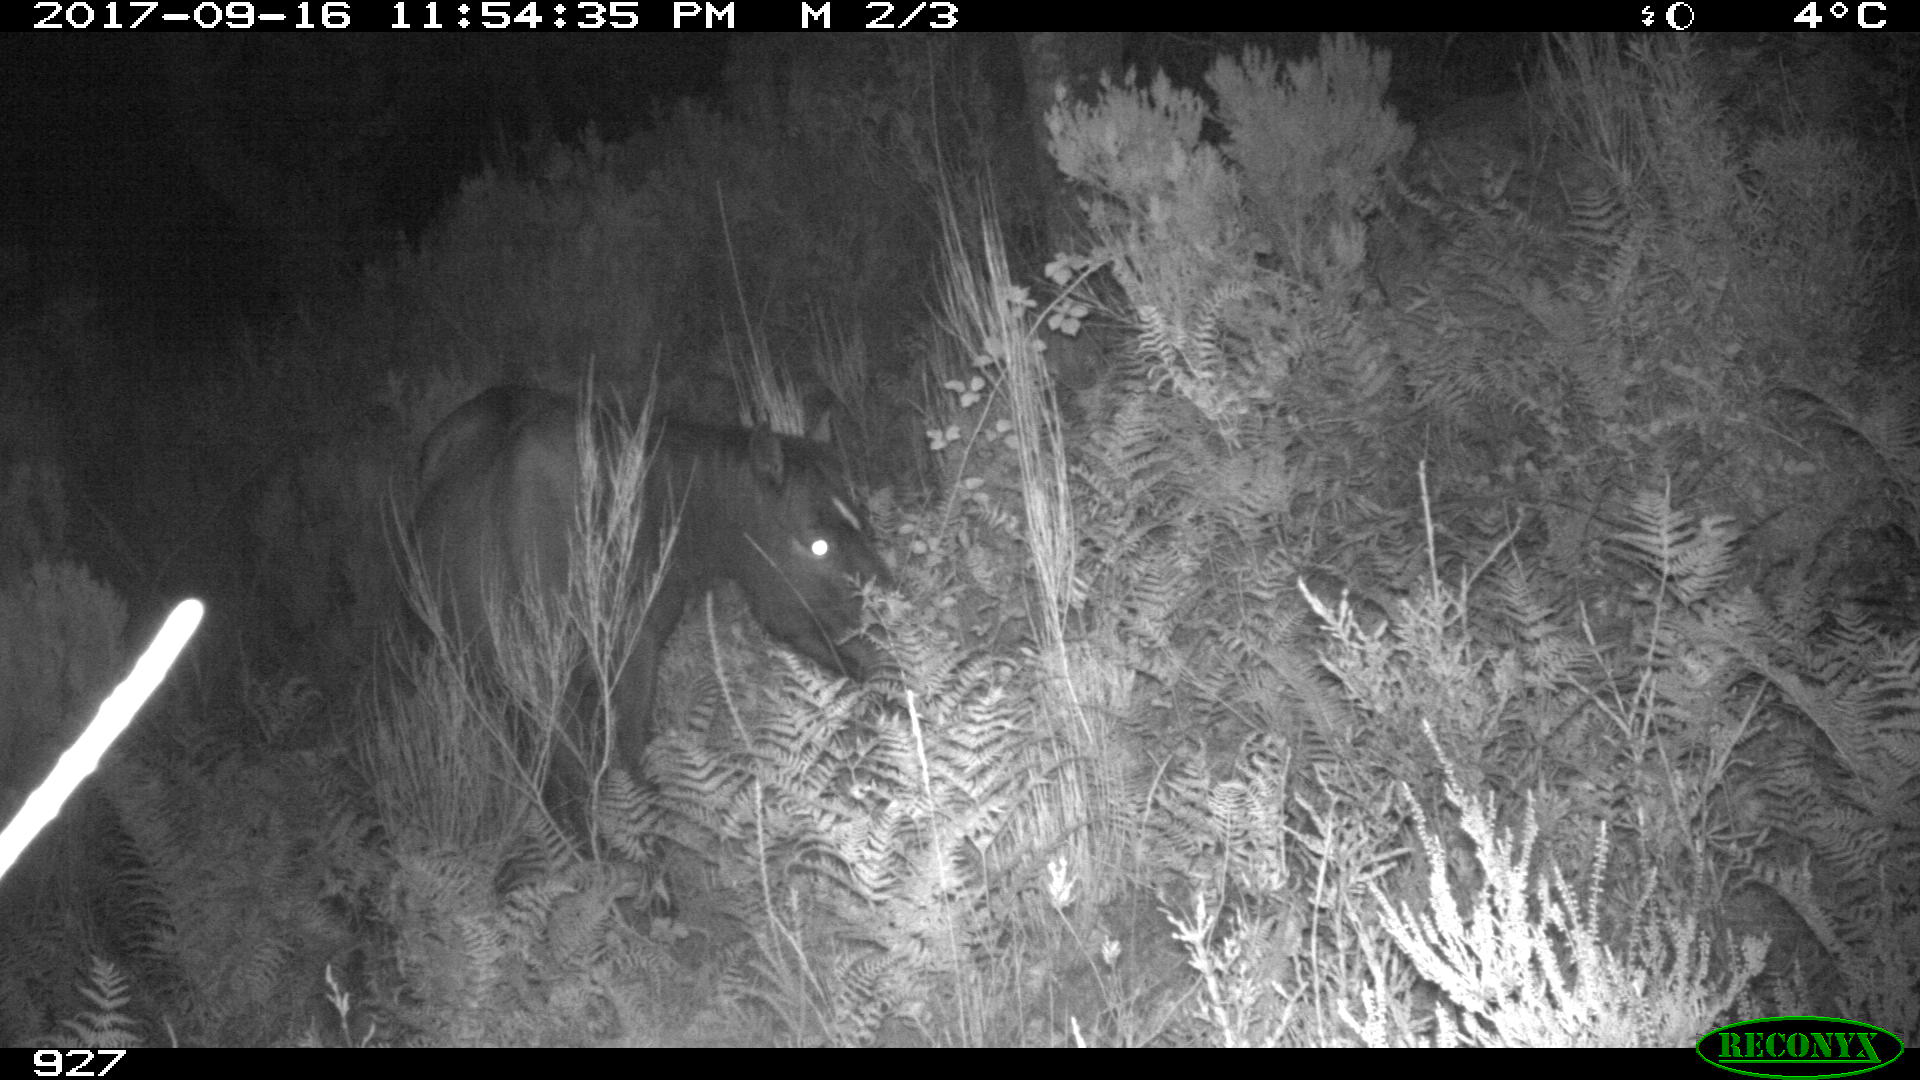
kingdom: Animalia
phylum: Chordata
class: Mammalia
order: Perissodactyla
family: Equidae
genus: Equus
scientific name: Equus caballus
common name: Horse
